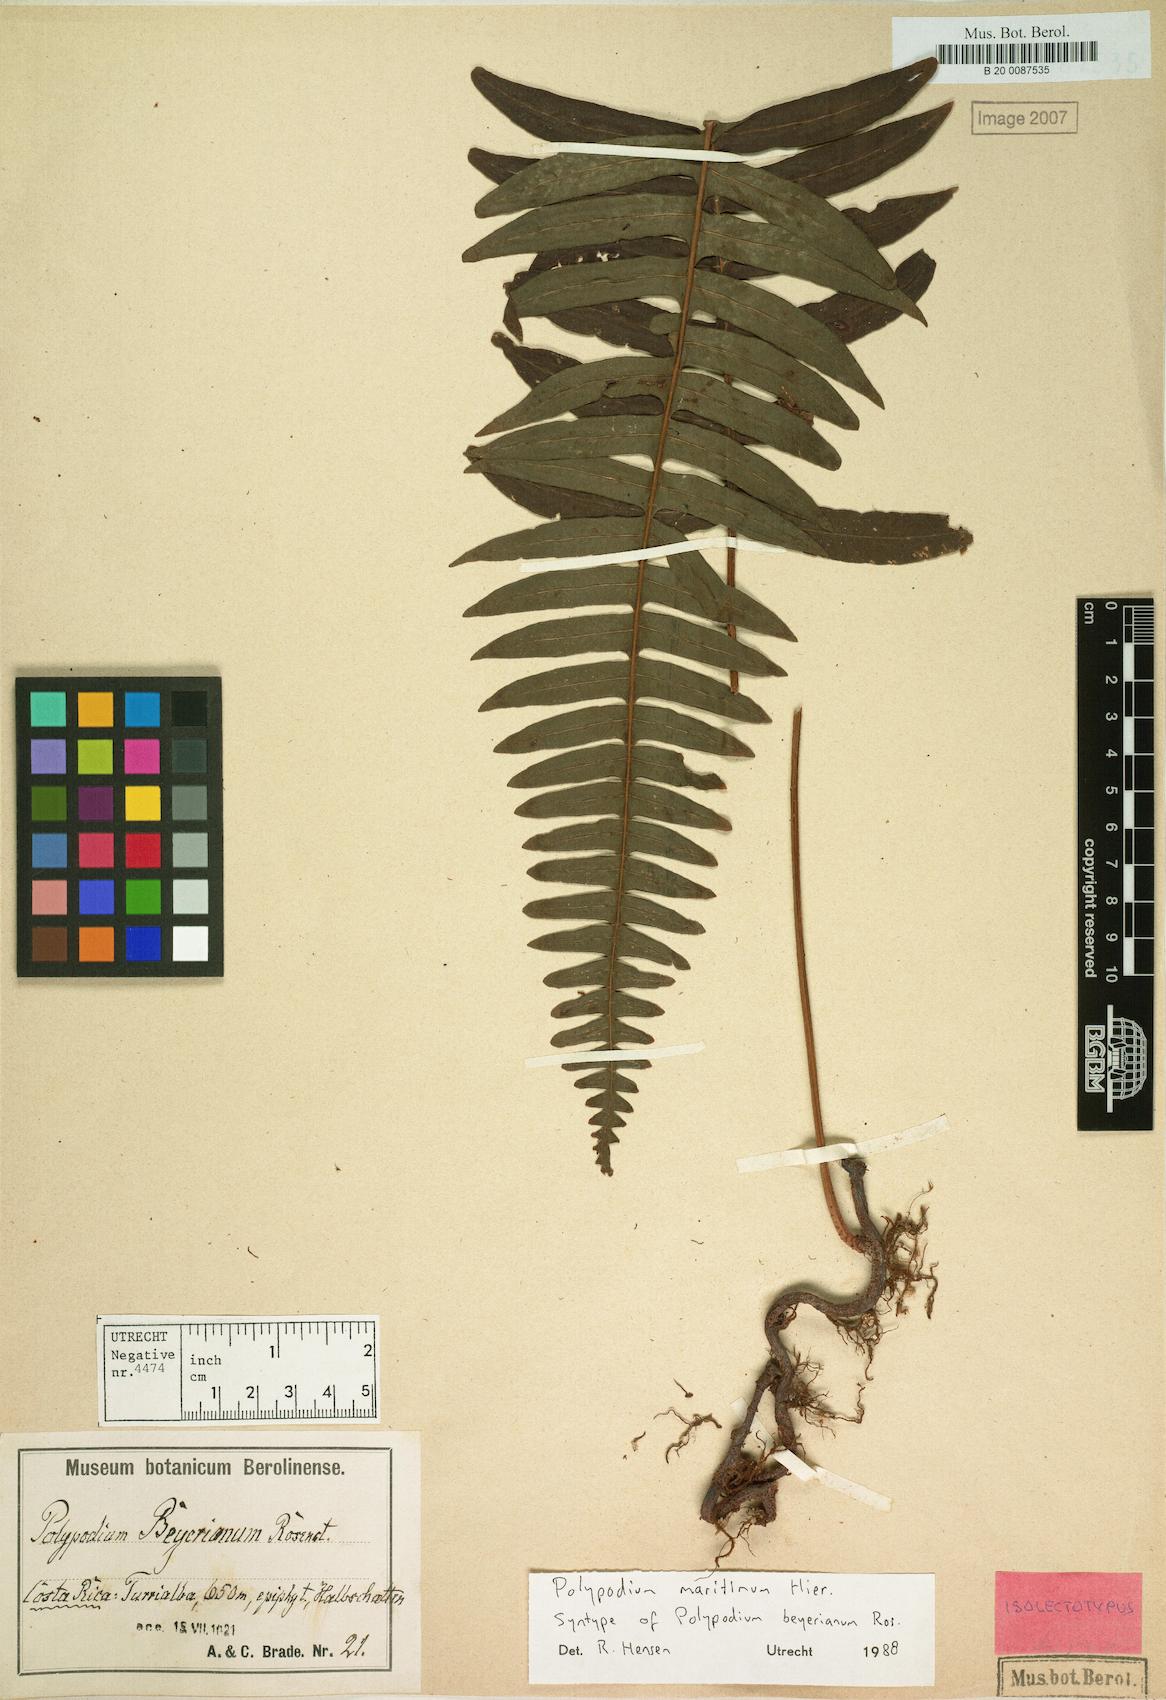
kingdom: Plantae
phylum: Tracheophyta
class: Polypodiopsida
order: Polypodiales
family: Polypodiaceae
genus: Serpocaulon
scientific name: Serpocaulon maritimum
